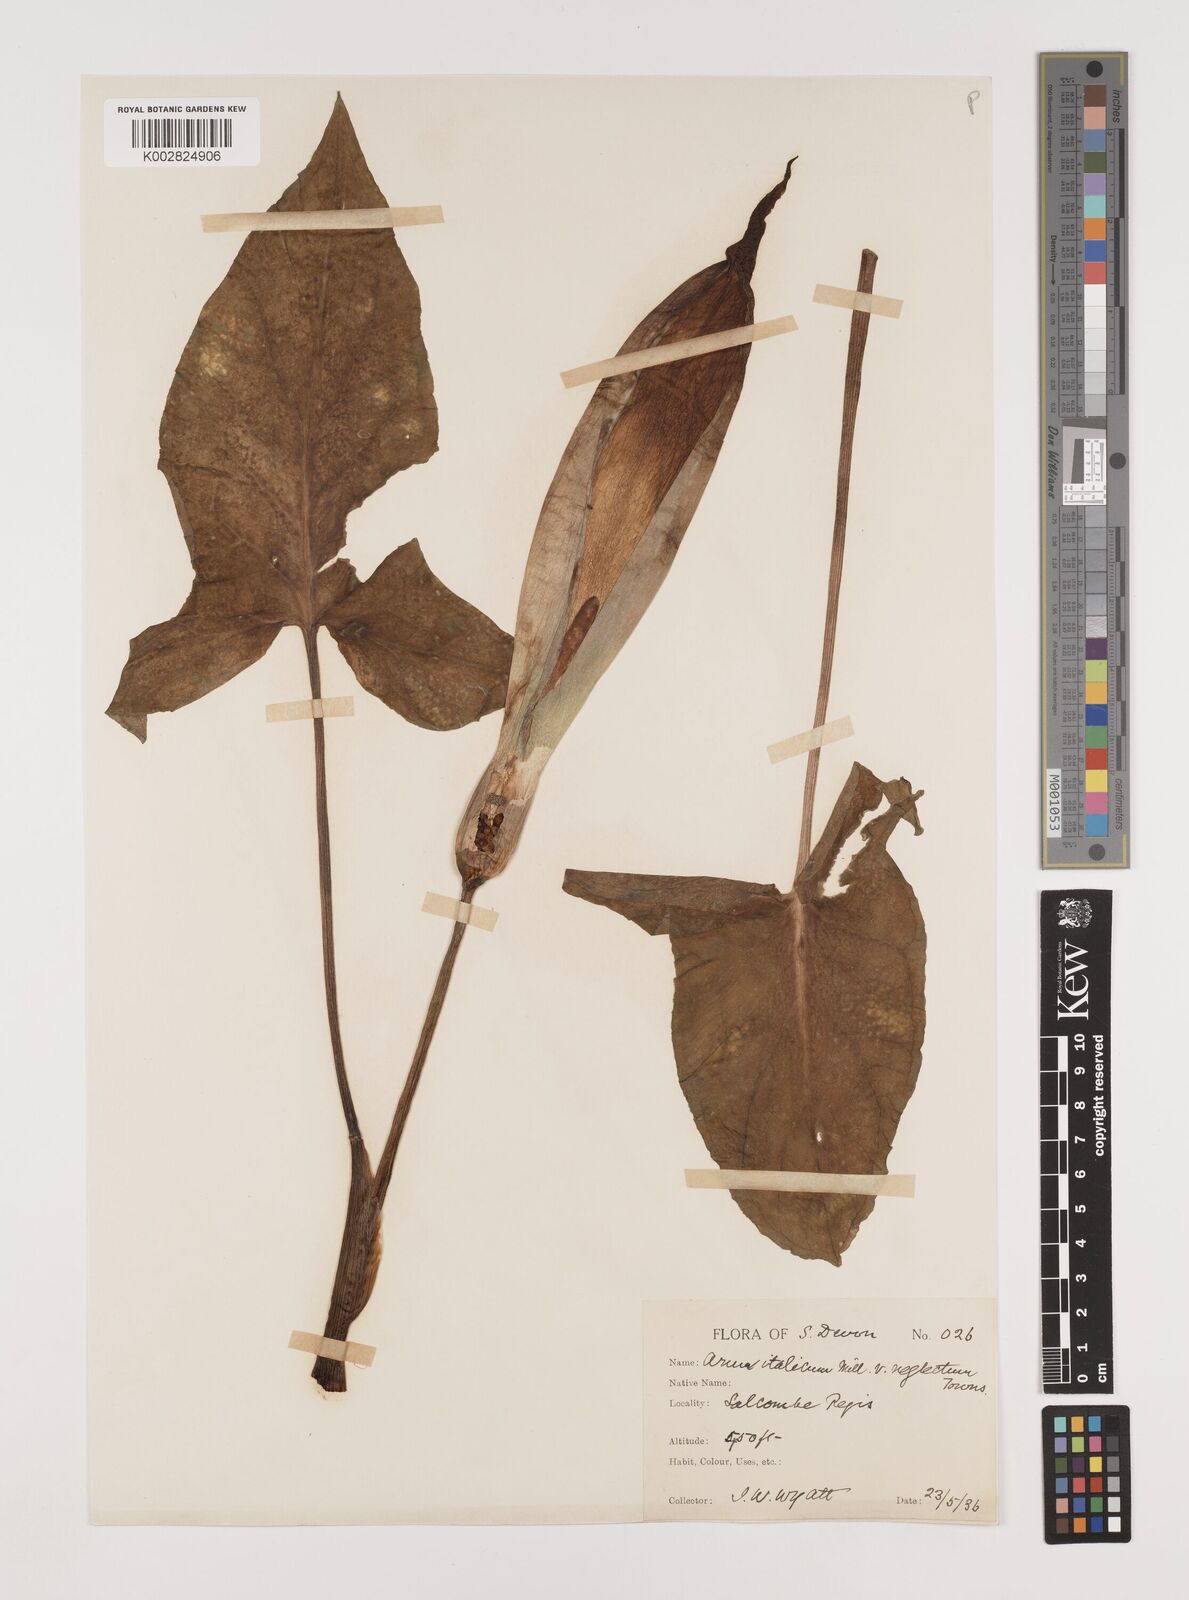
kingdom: Plantae
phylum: Tracheophyta
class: Liliopsida
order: Alismatales
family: Araceae
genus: Arum
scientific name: Arum italicum
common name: Italian lords-and-ladies
